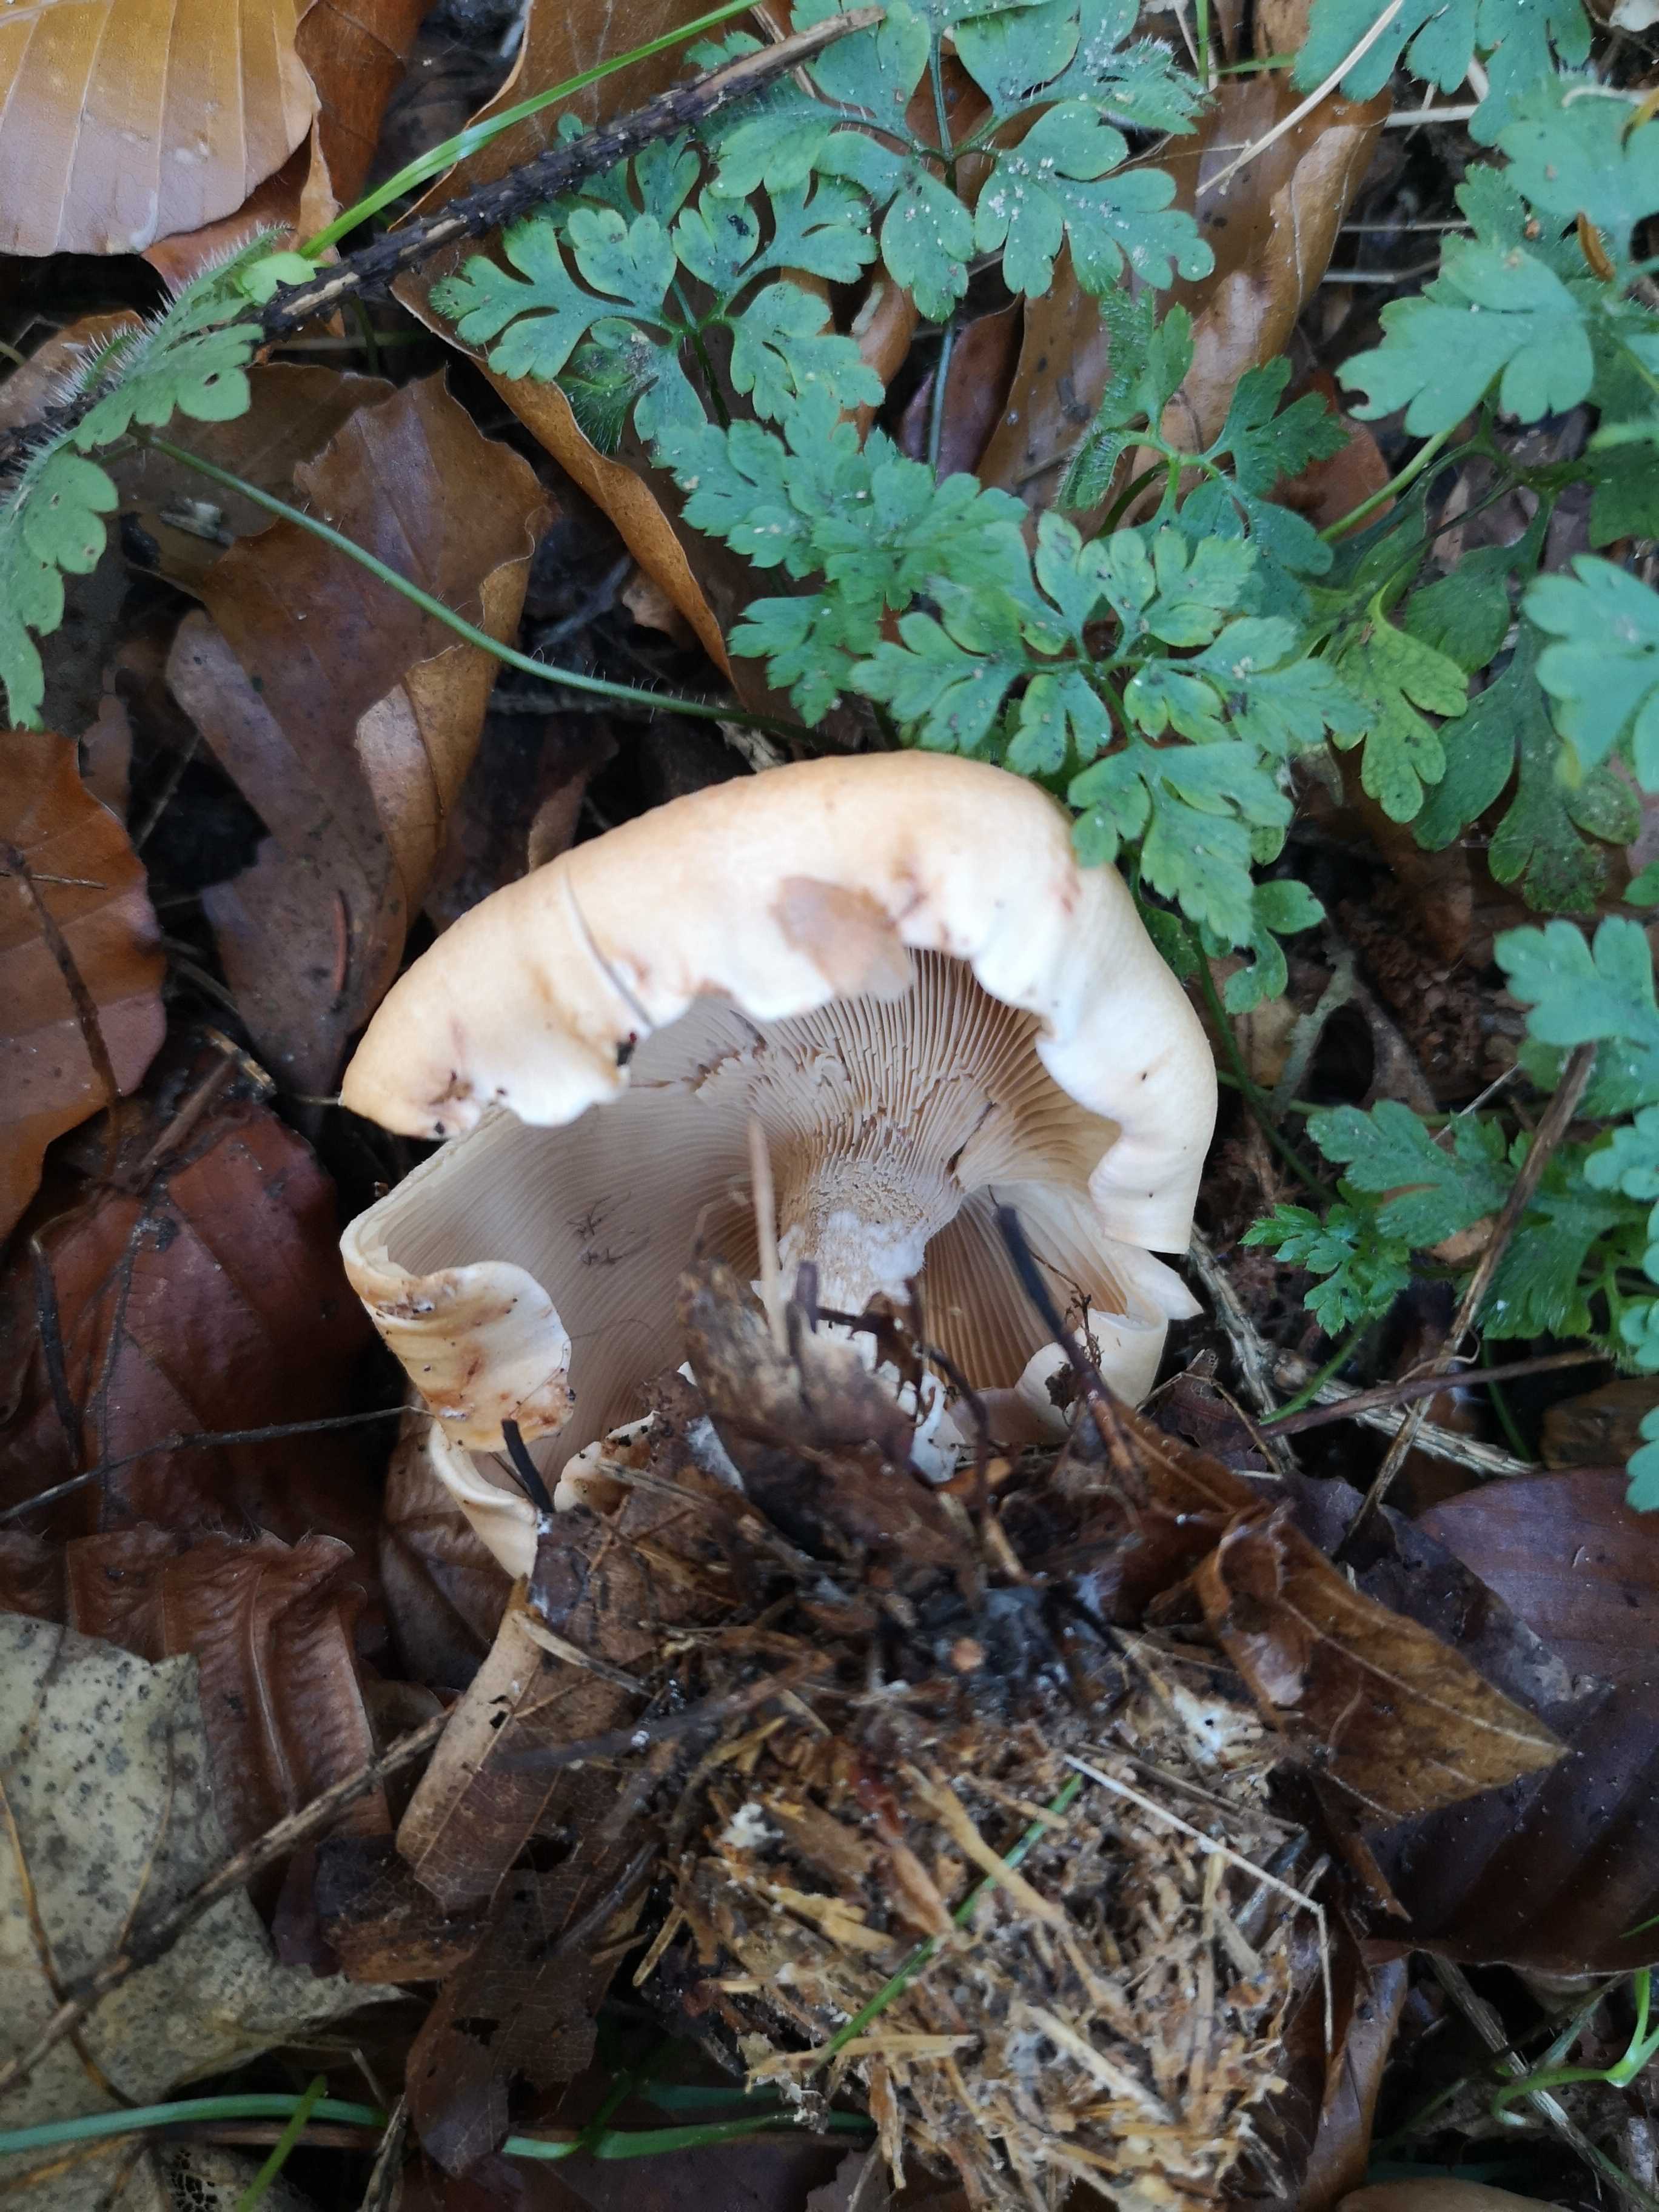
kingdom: Fungi
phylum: Basidiomycota
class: Agaricomycetes
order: Agaricales
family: Tricholomataceae
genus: Paralepista
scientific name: Paralepista gilva
